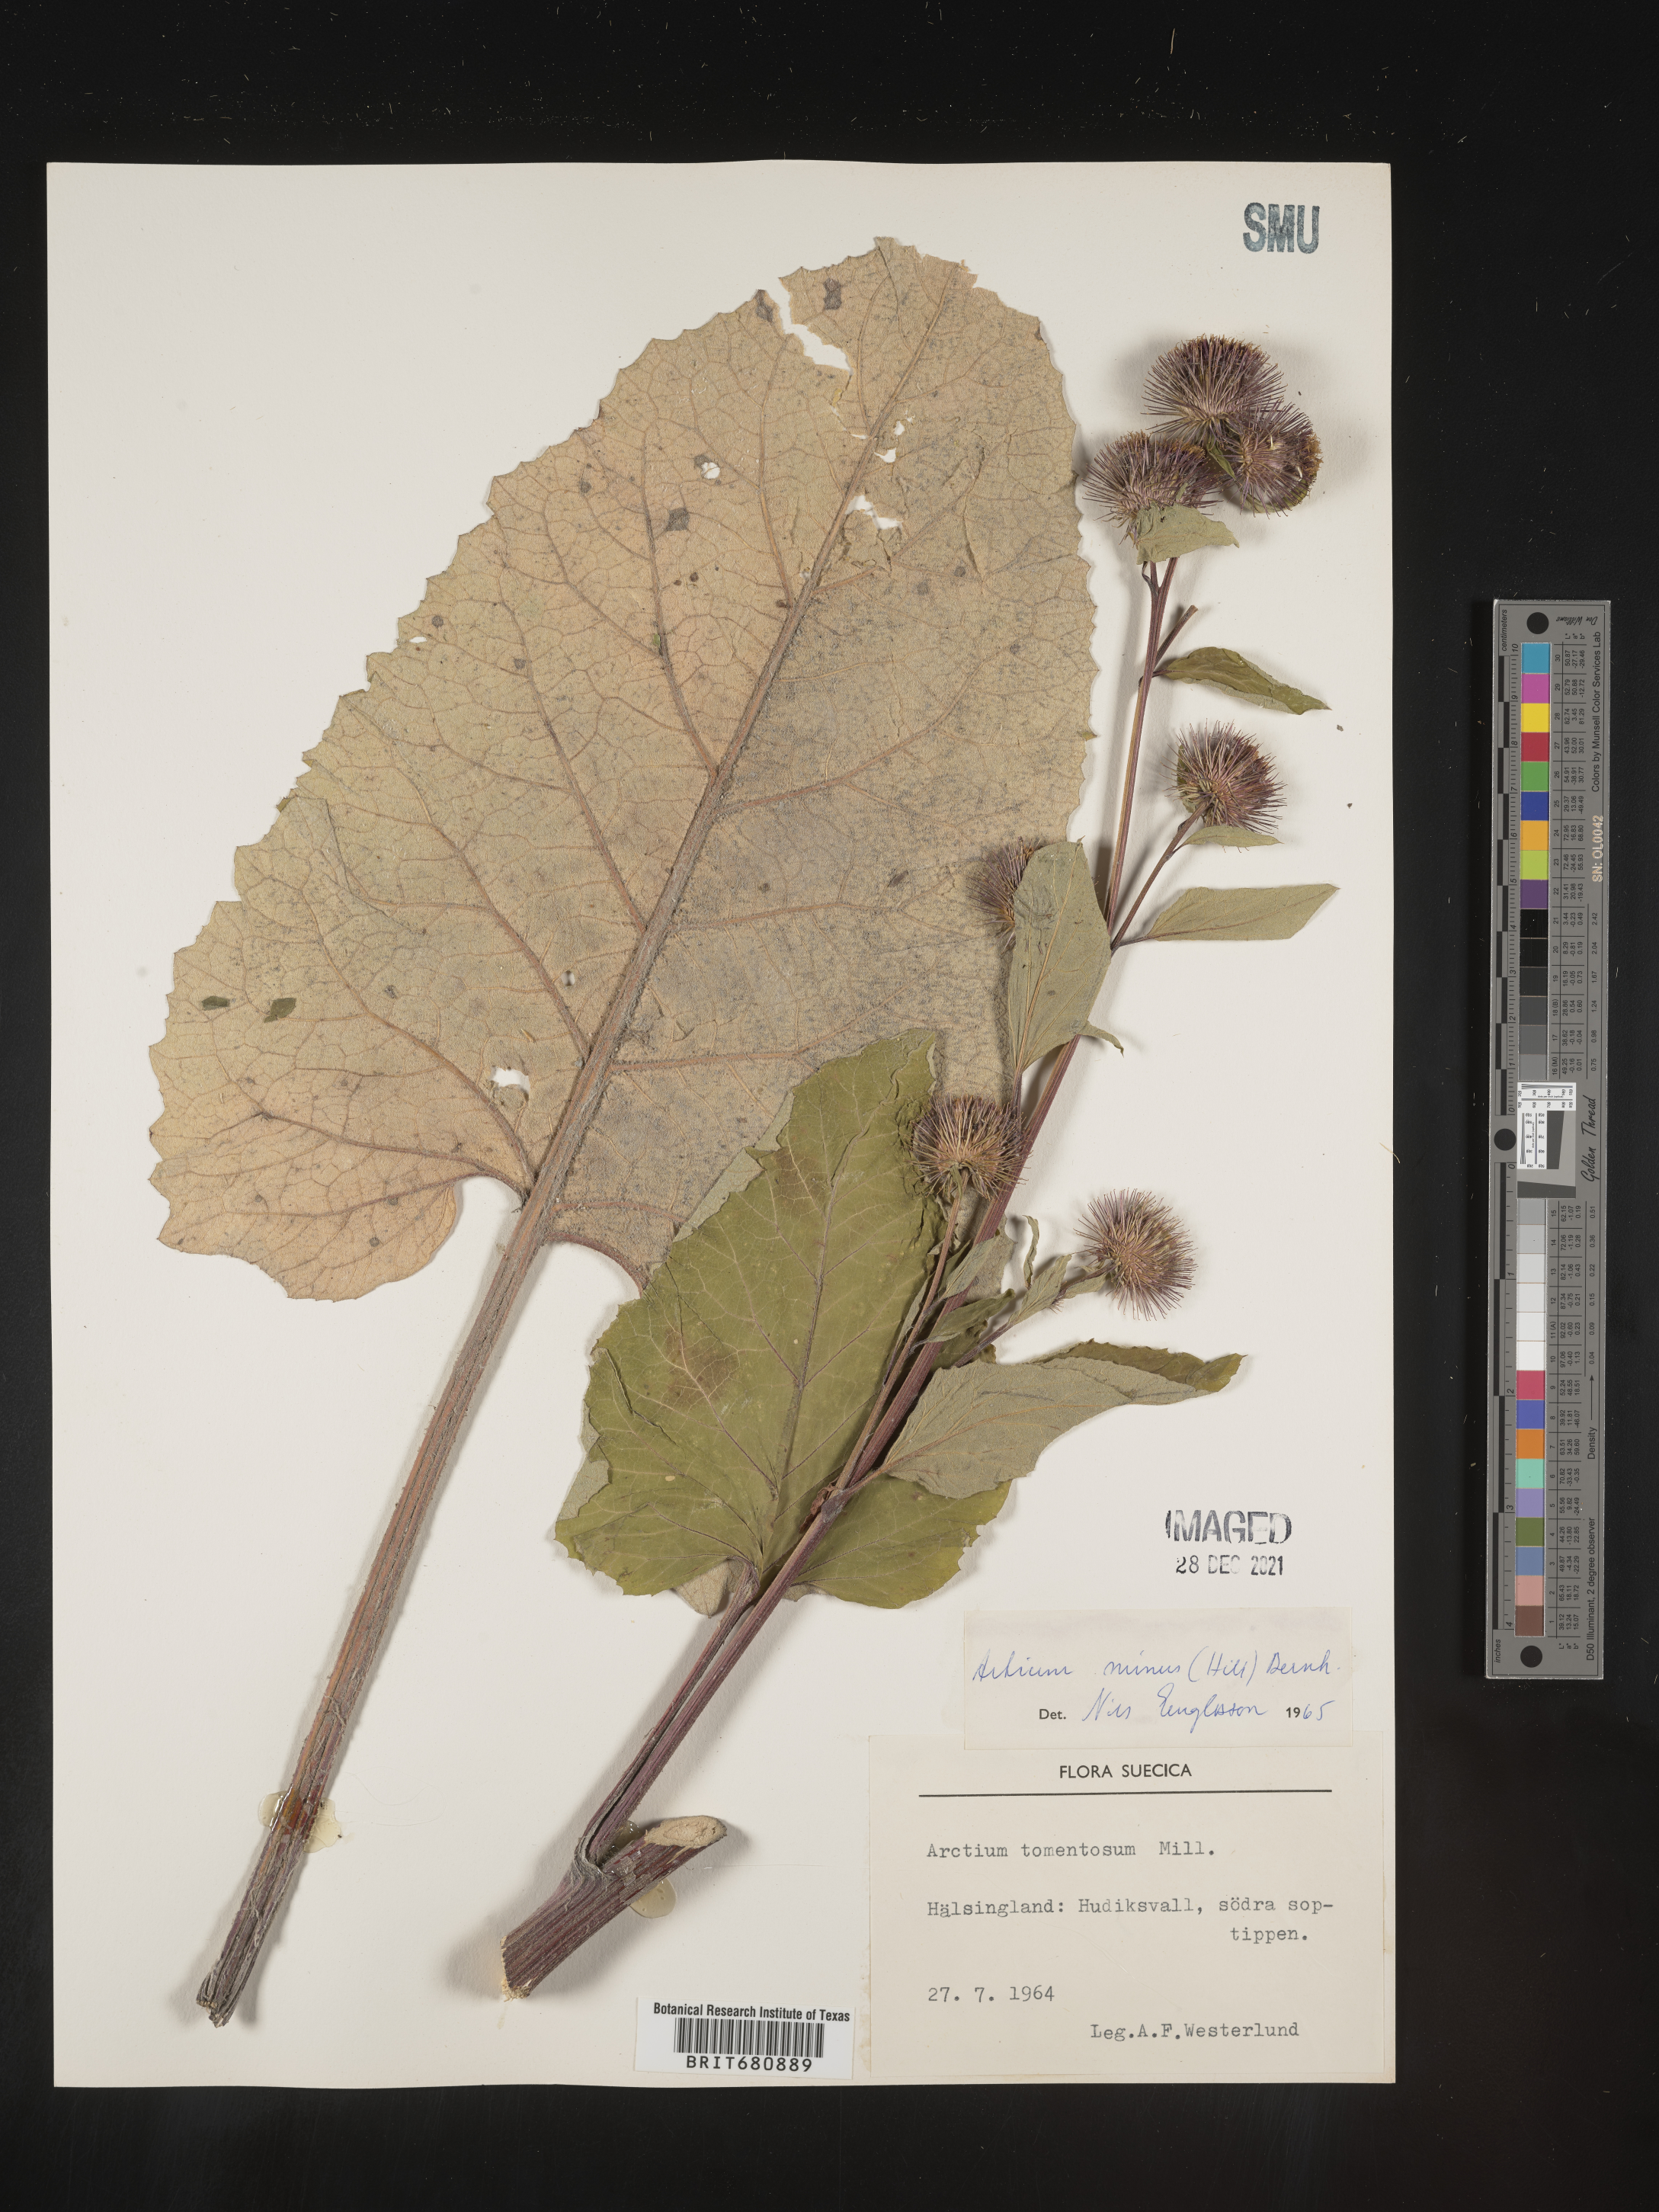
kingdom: Plantae
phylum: Tracheophyta
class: Magnoliopsida
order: Asterales
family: Asteraceae
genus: Arctium
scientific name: Arctium
